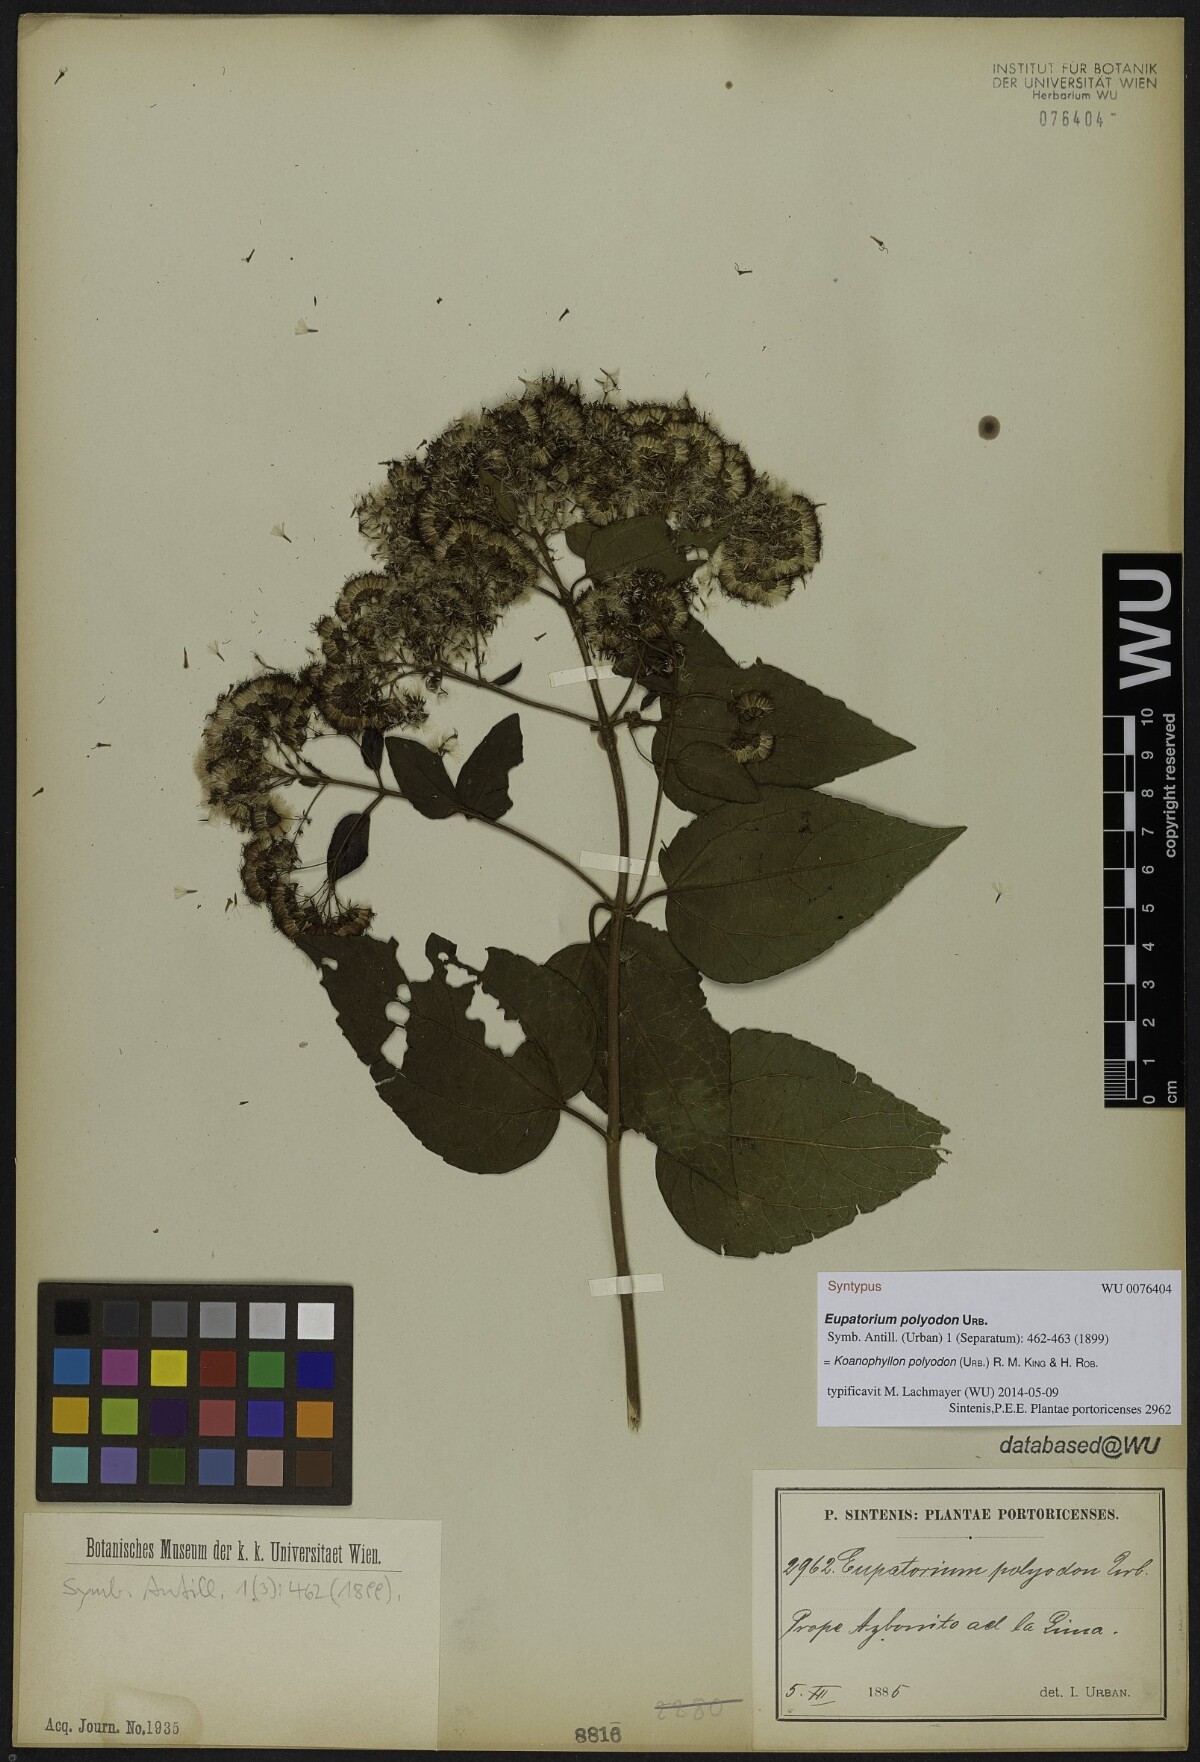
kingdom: Plantae
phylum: Tracheophyta
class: Magnoliopsida
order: Asterales
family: Asteraceae
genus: Koanophyllon
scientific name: Koanophyllon polyodon
